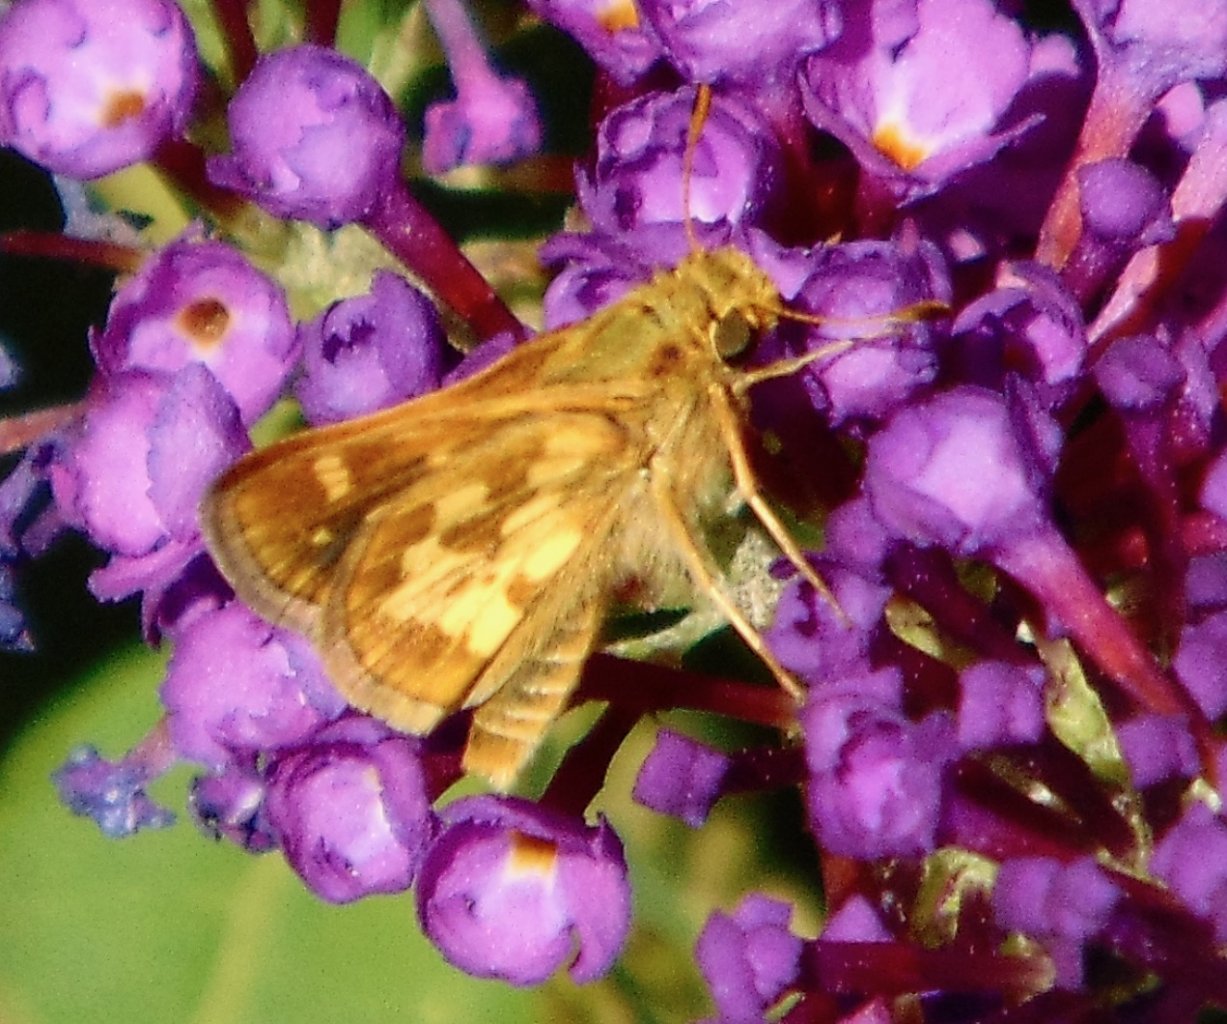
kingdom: Animalia
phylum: Arthropoda
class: Insecta
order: Lepidoptera
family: Hesperiidae
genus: Polites
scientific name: Polites coras
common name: Peck's Skipper
